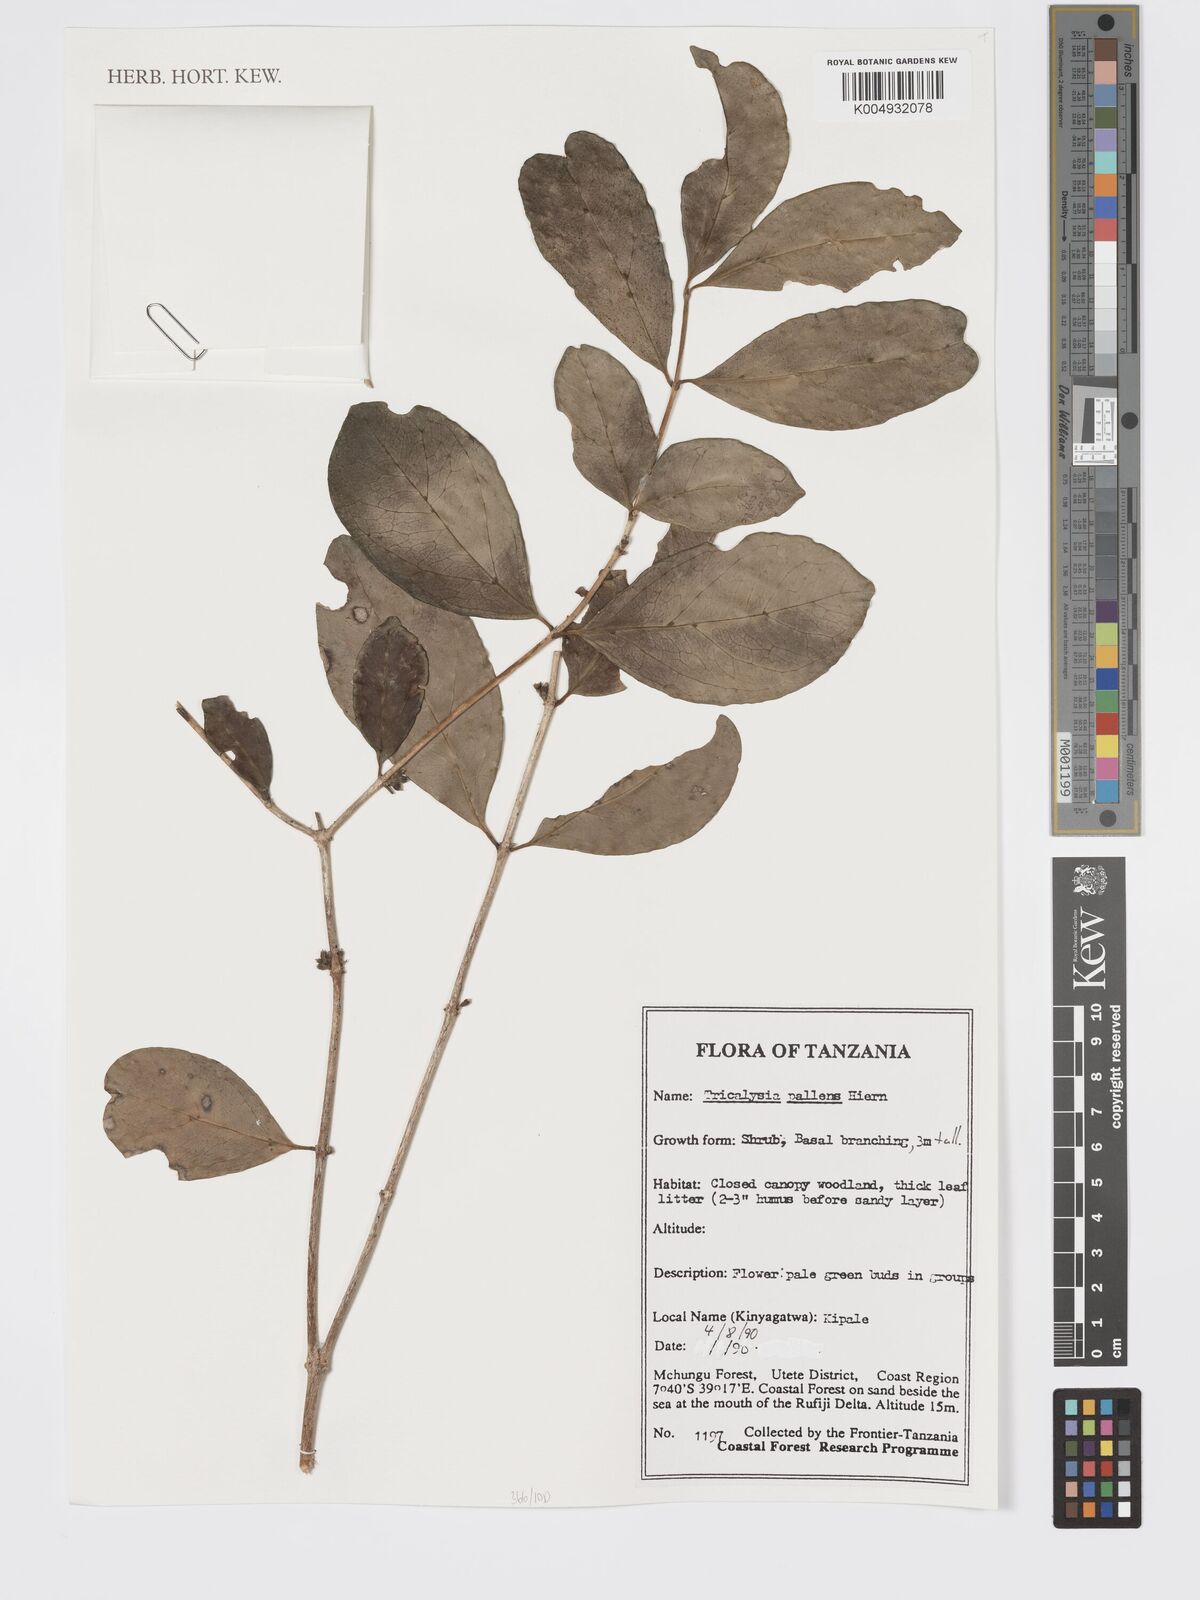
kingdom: Plantae
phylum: Tracheophyta
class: Magnoliopsida
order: Gentianales
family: Rubiaceae
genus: Tricalysia
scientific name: Tricalysia pallens
